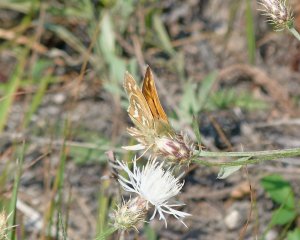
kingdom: Animalia
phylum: Arthropoda
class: Insecta
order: Lepidoptera
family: Hesperiidae
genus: Hesperia
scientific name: Hesperia comma
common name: Western Branded Skipper
